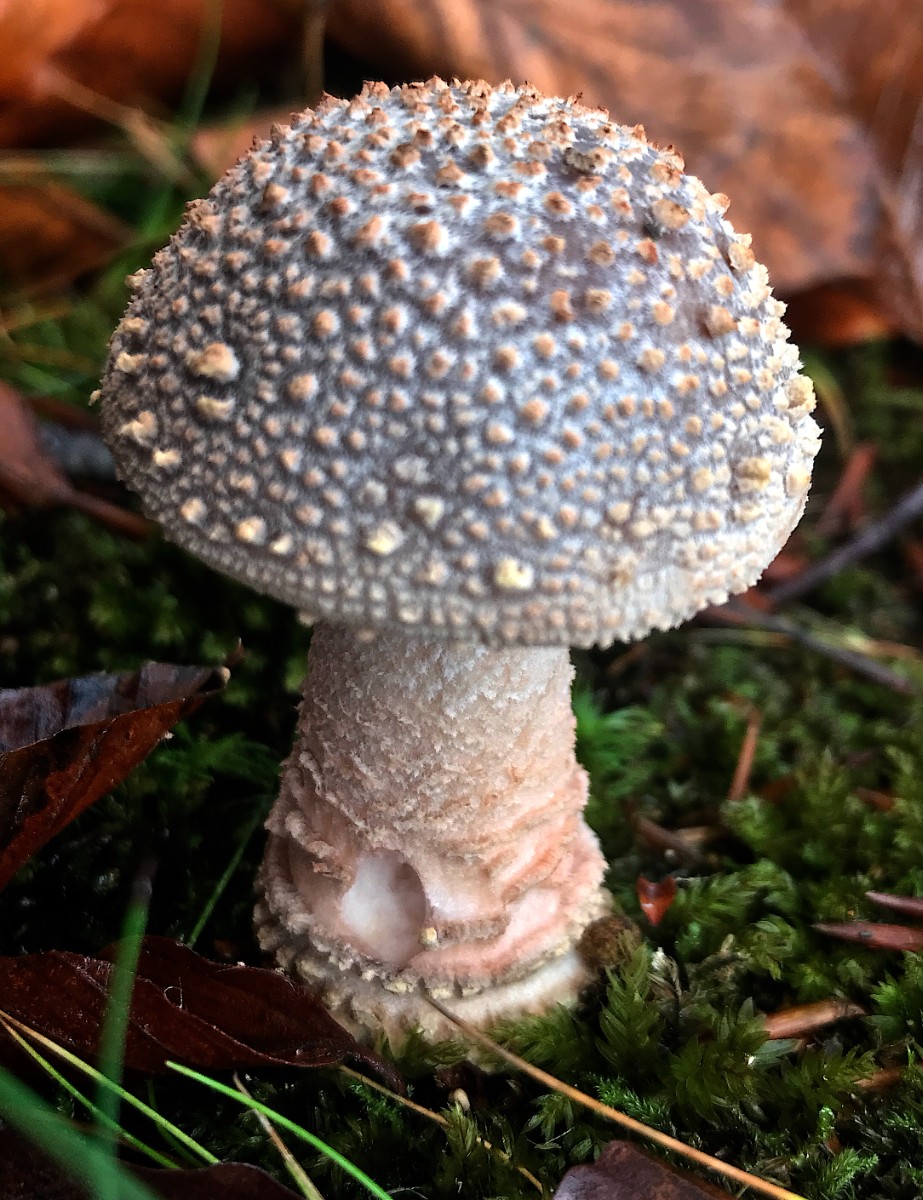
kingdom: Fungi
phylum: Basidiomycota
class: Agaricomycetes
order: Agaricales
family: Amanitaceae
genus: Amanita
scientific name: Amanita rubescens
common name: rødmende fluesvamp
